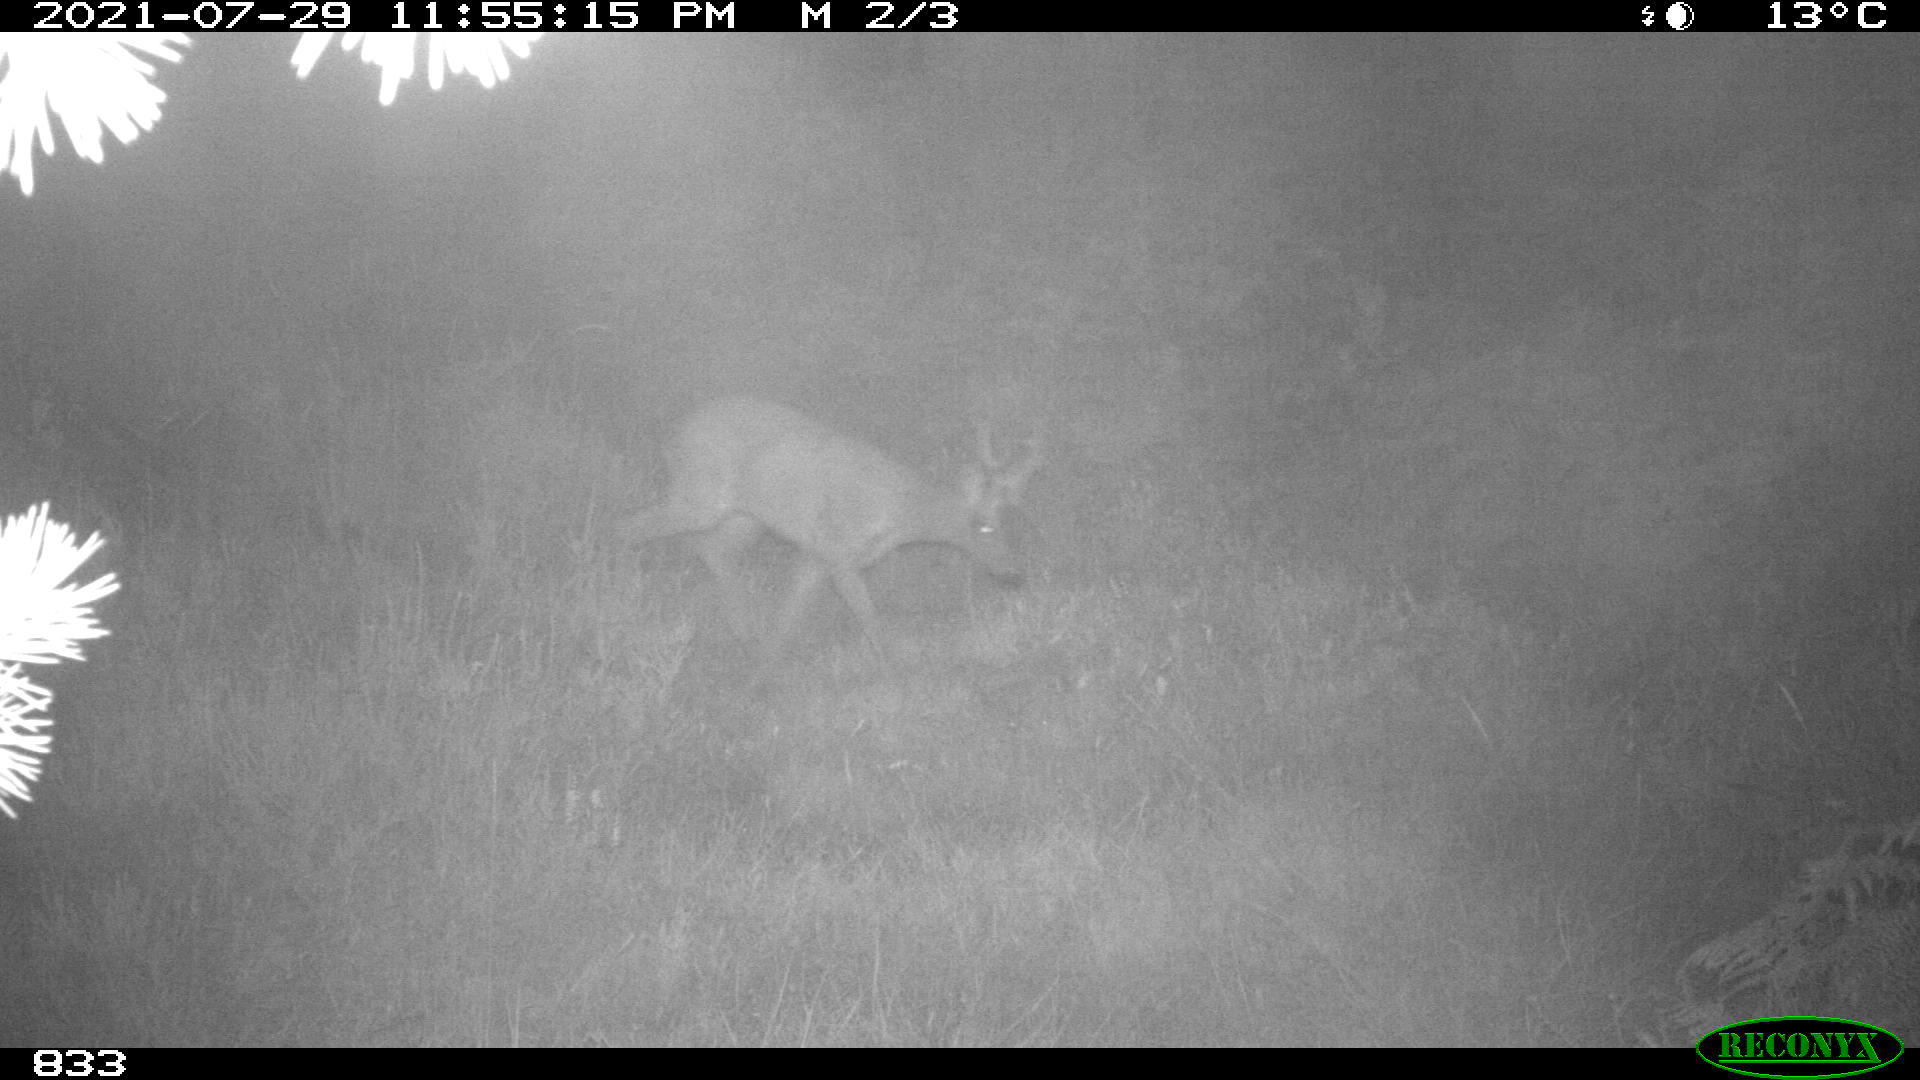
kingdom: Animalia
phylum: Chordata
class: Mammalia
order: Artiodactyla
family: Cervidae
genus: Capreolus
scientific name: Capreolus capreolus
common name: Western roe deer
